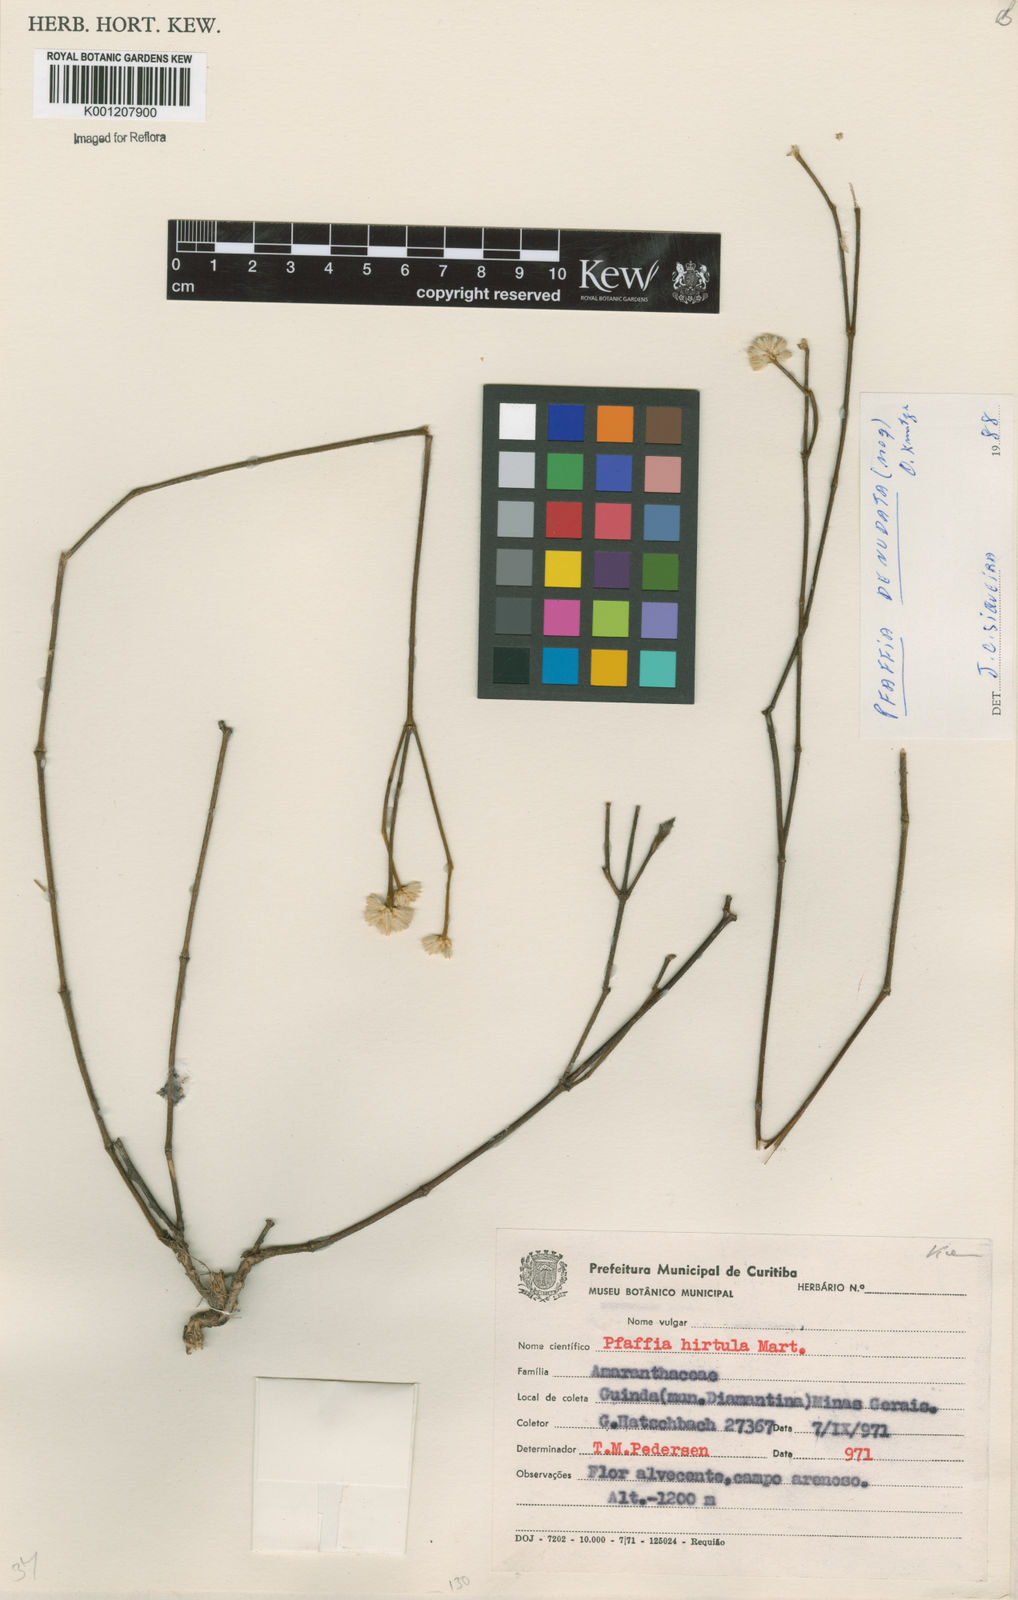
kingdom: Plantae
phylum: Tracheophyta
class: Magnoliopsida
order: Caryophyllales
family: Amaranthaceae
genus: Pfaffia
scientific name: Pfaffia denudata
